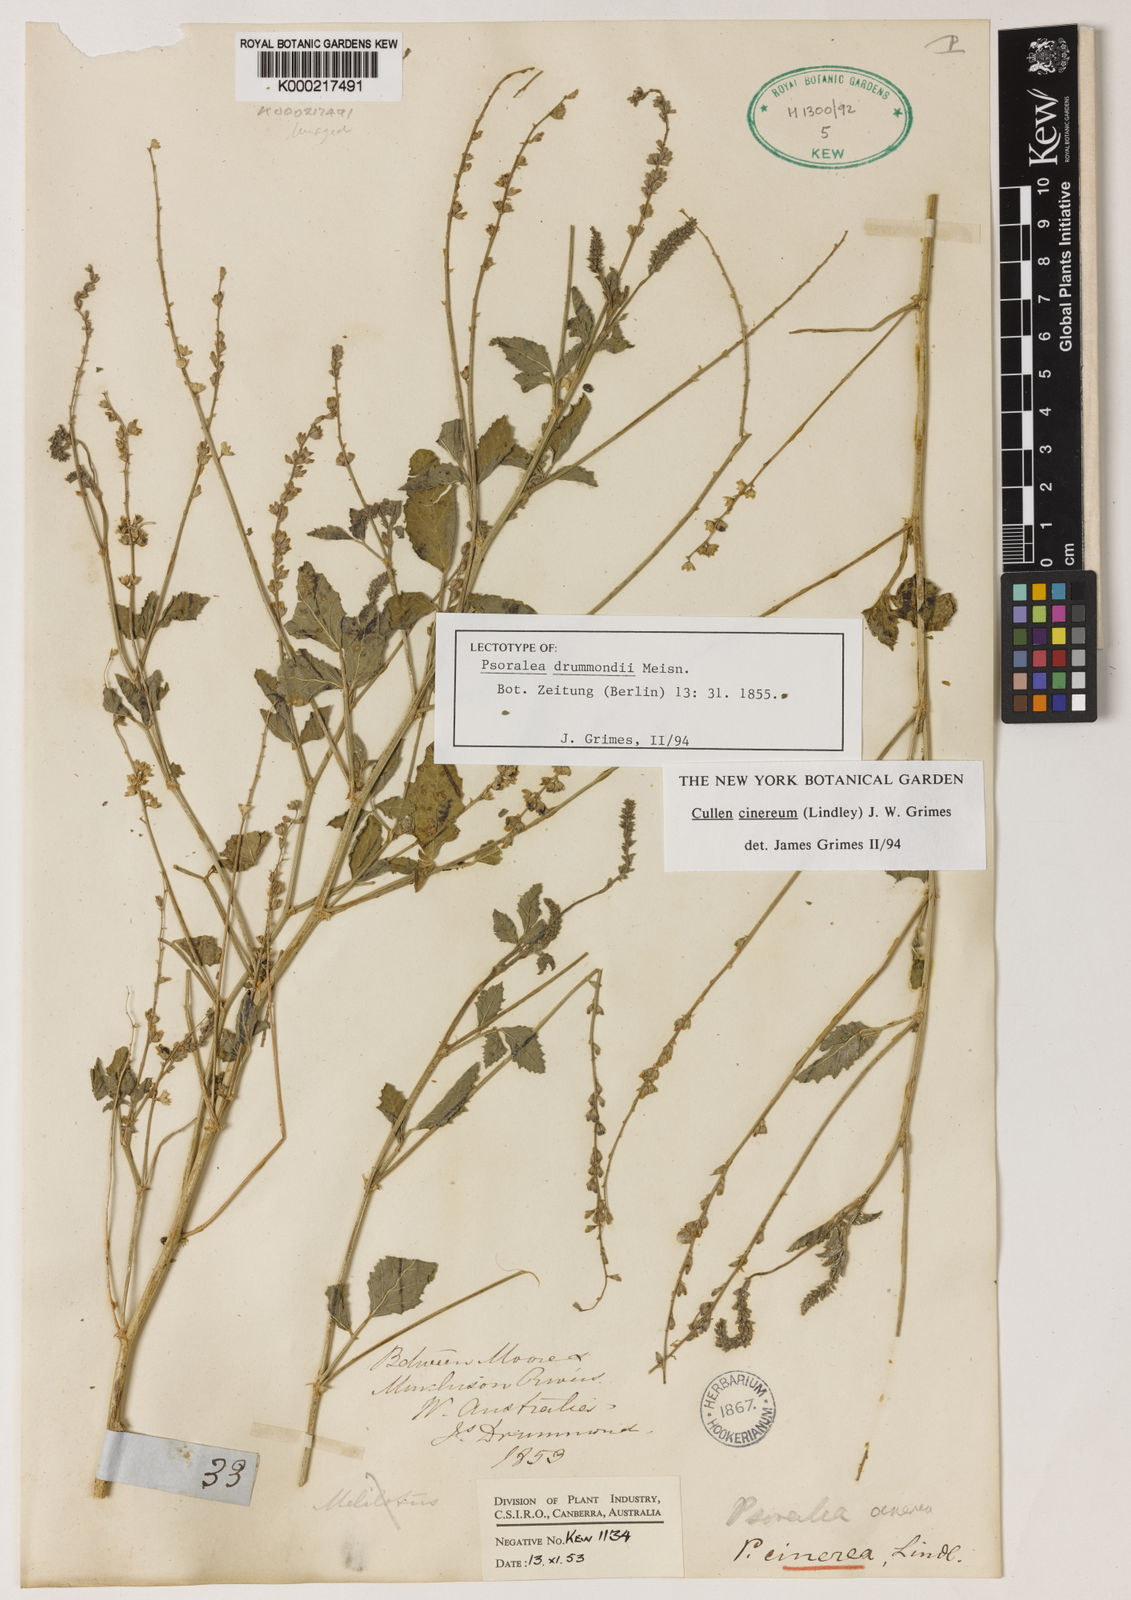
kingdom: Plantae
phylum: Tracheophyta
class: Magnoliopsida
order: Fabales
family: Fabaceae
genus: Cullen
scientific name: Cullen cinereum
